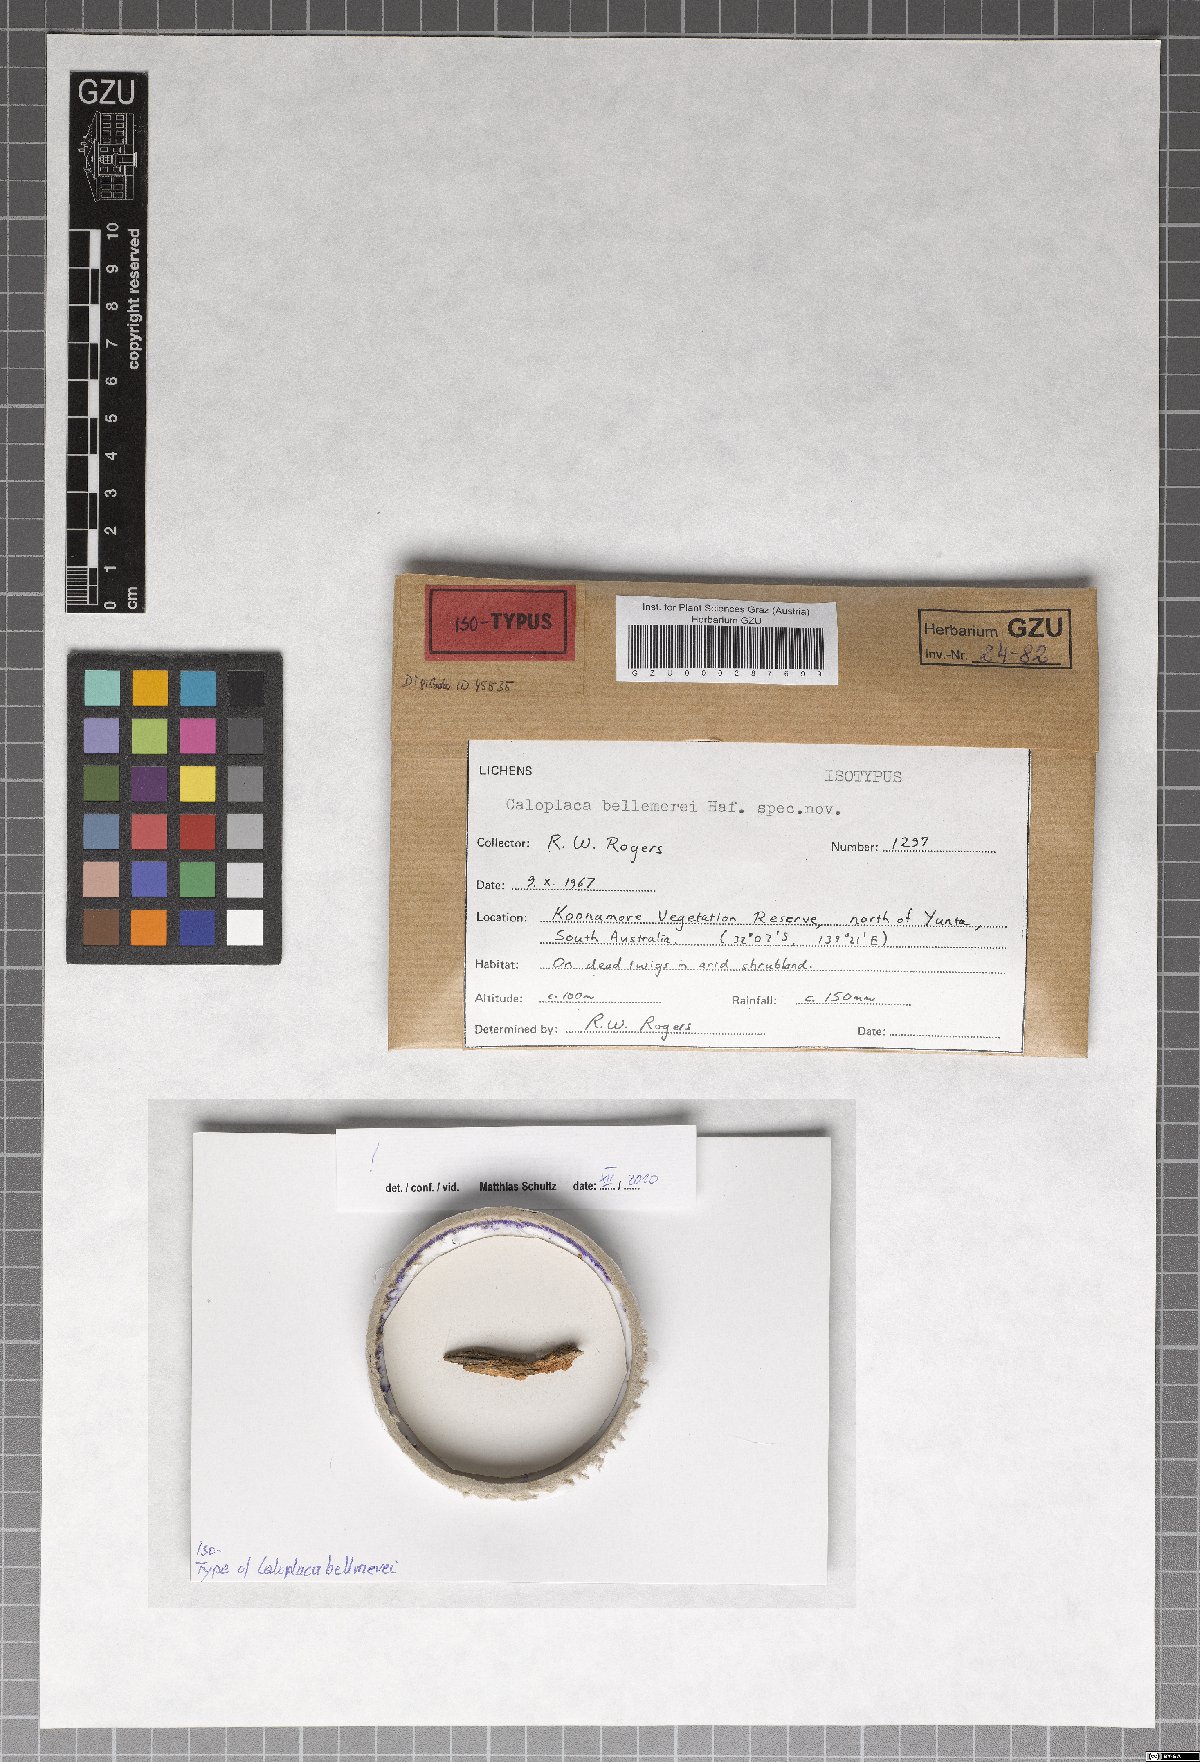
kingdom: Fungi
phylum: Ascomycota
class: Lecanoromycetes
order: Teloschistales
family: Teloschistaceae
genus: Caloplaca
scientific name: Caloplaca bellemerei
